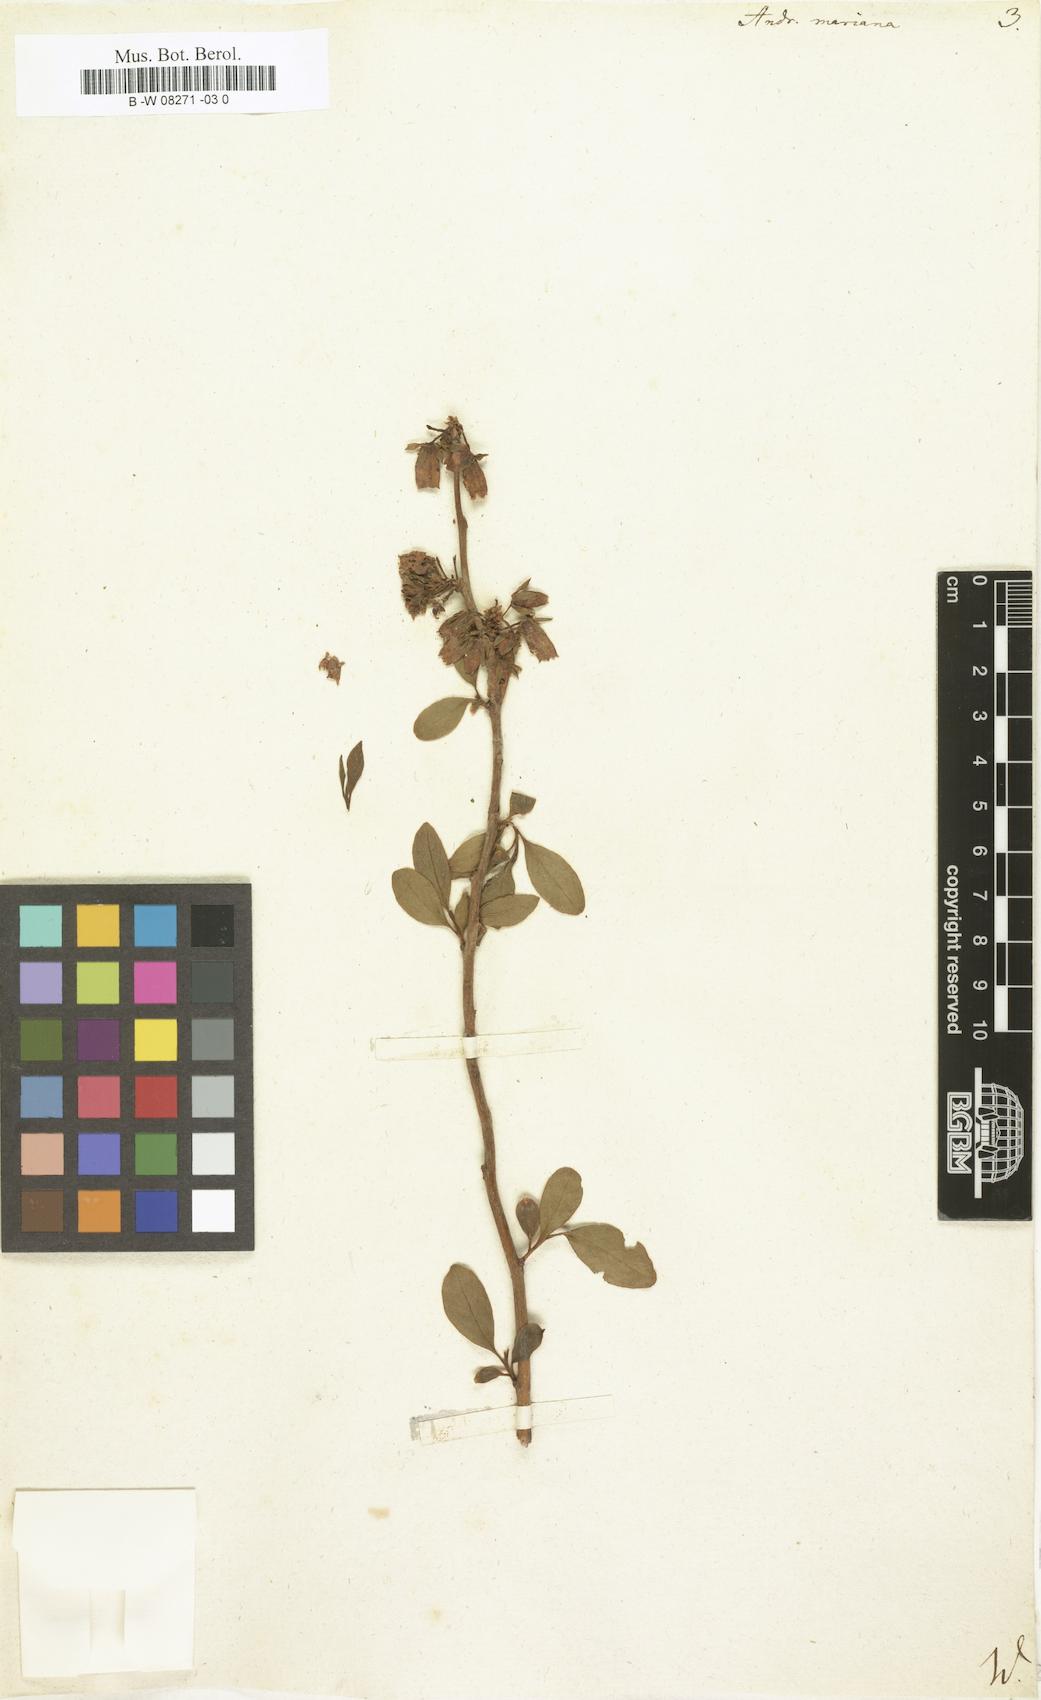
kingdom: Plantae
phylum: Tracheophyta
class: Magnoliopsida
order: Ericales
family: Ericaceae
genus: Lyonia
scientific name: Lyonia mariana
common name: Staggerbush
